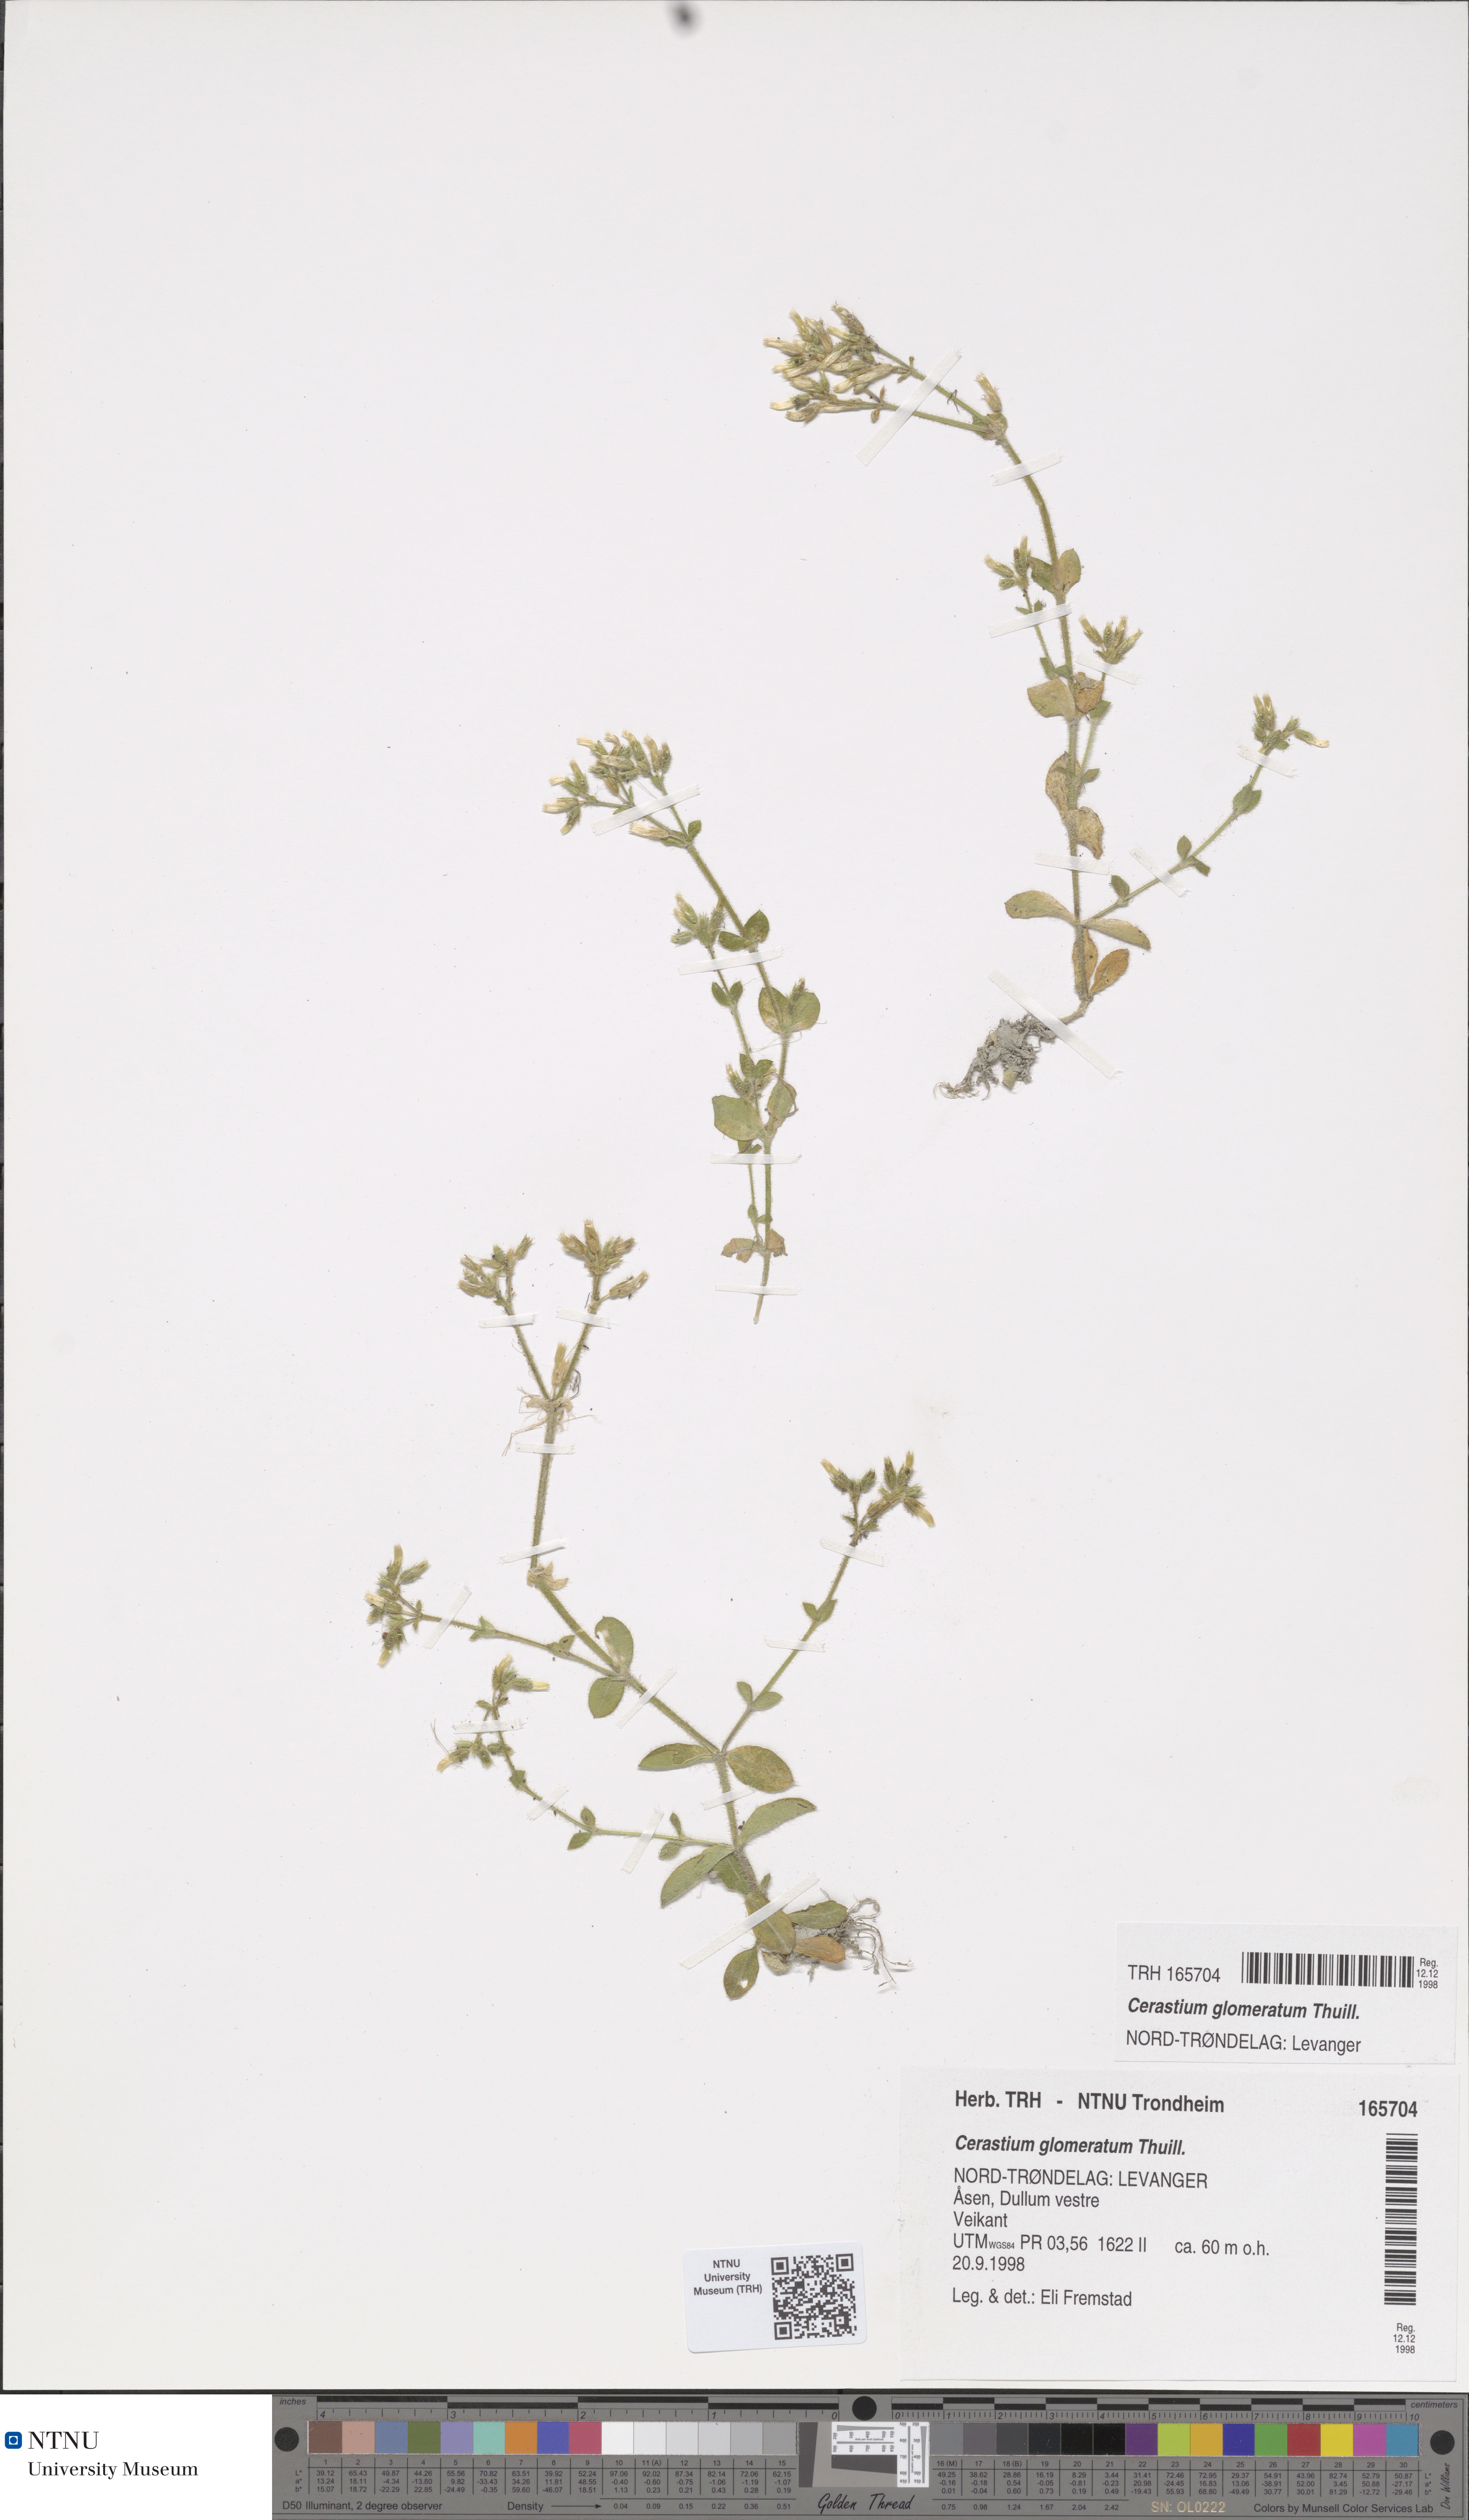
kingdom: Plantae
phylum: Tracheophyta
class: Magnoliopsida
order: Caryophyllales
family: Caryophyllaceae
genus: Cerastium
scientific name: Cerastium glomeratum
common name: Sticky chickweed
